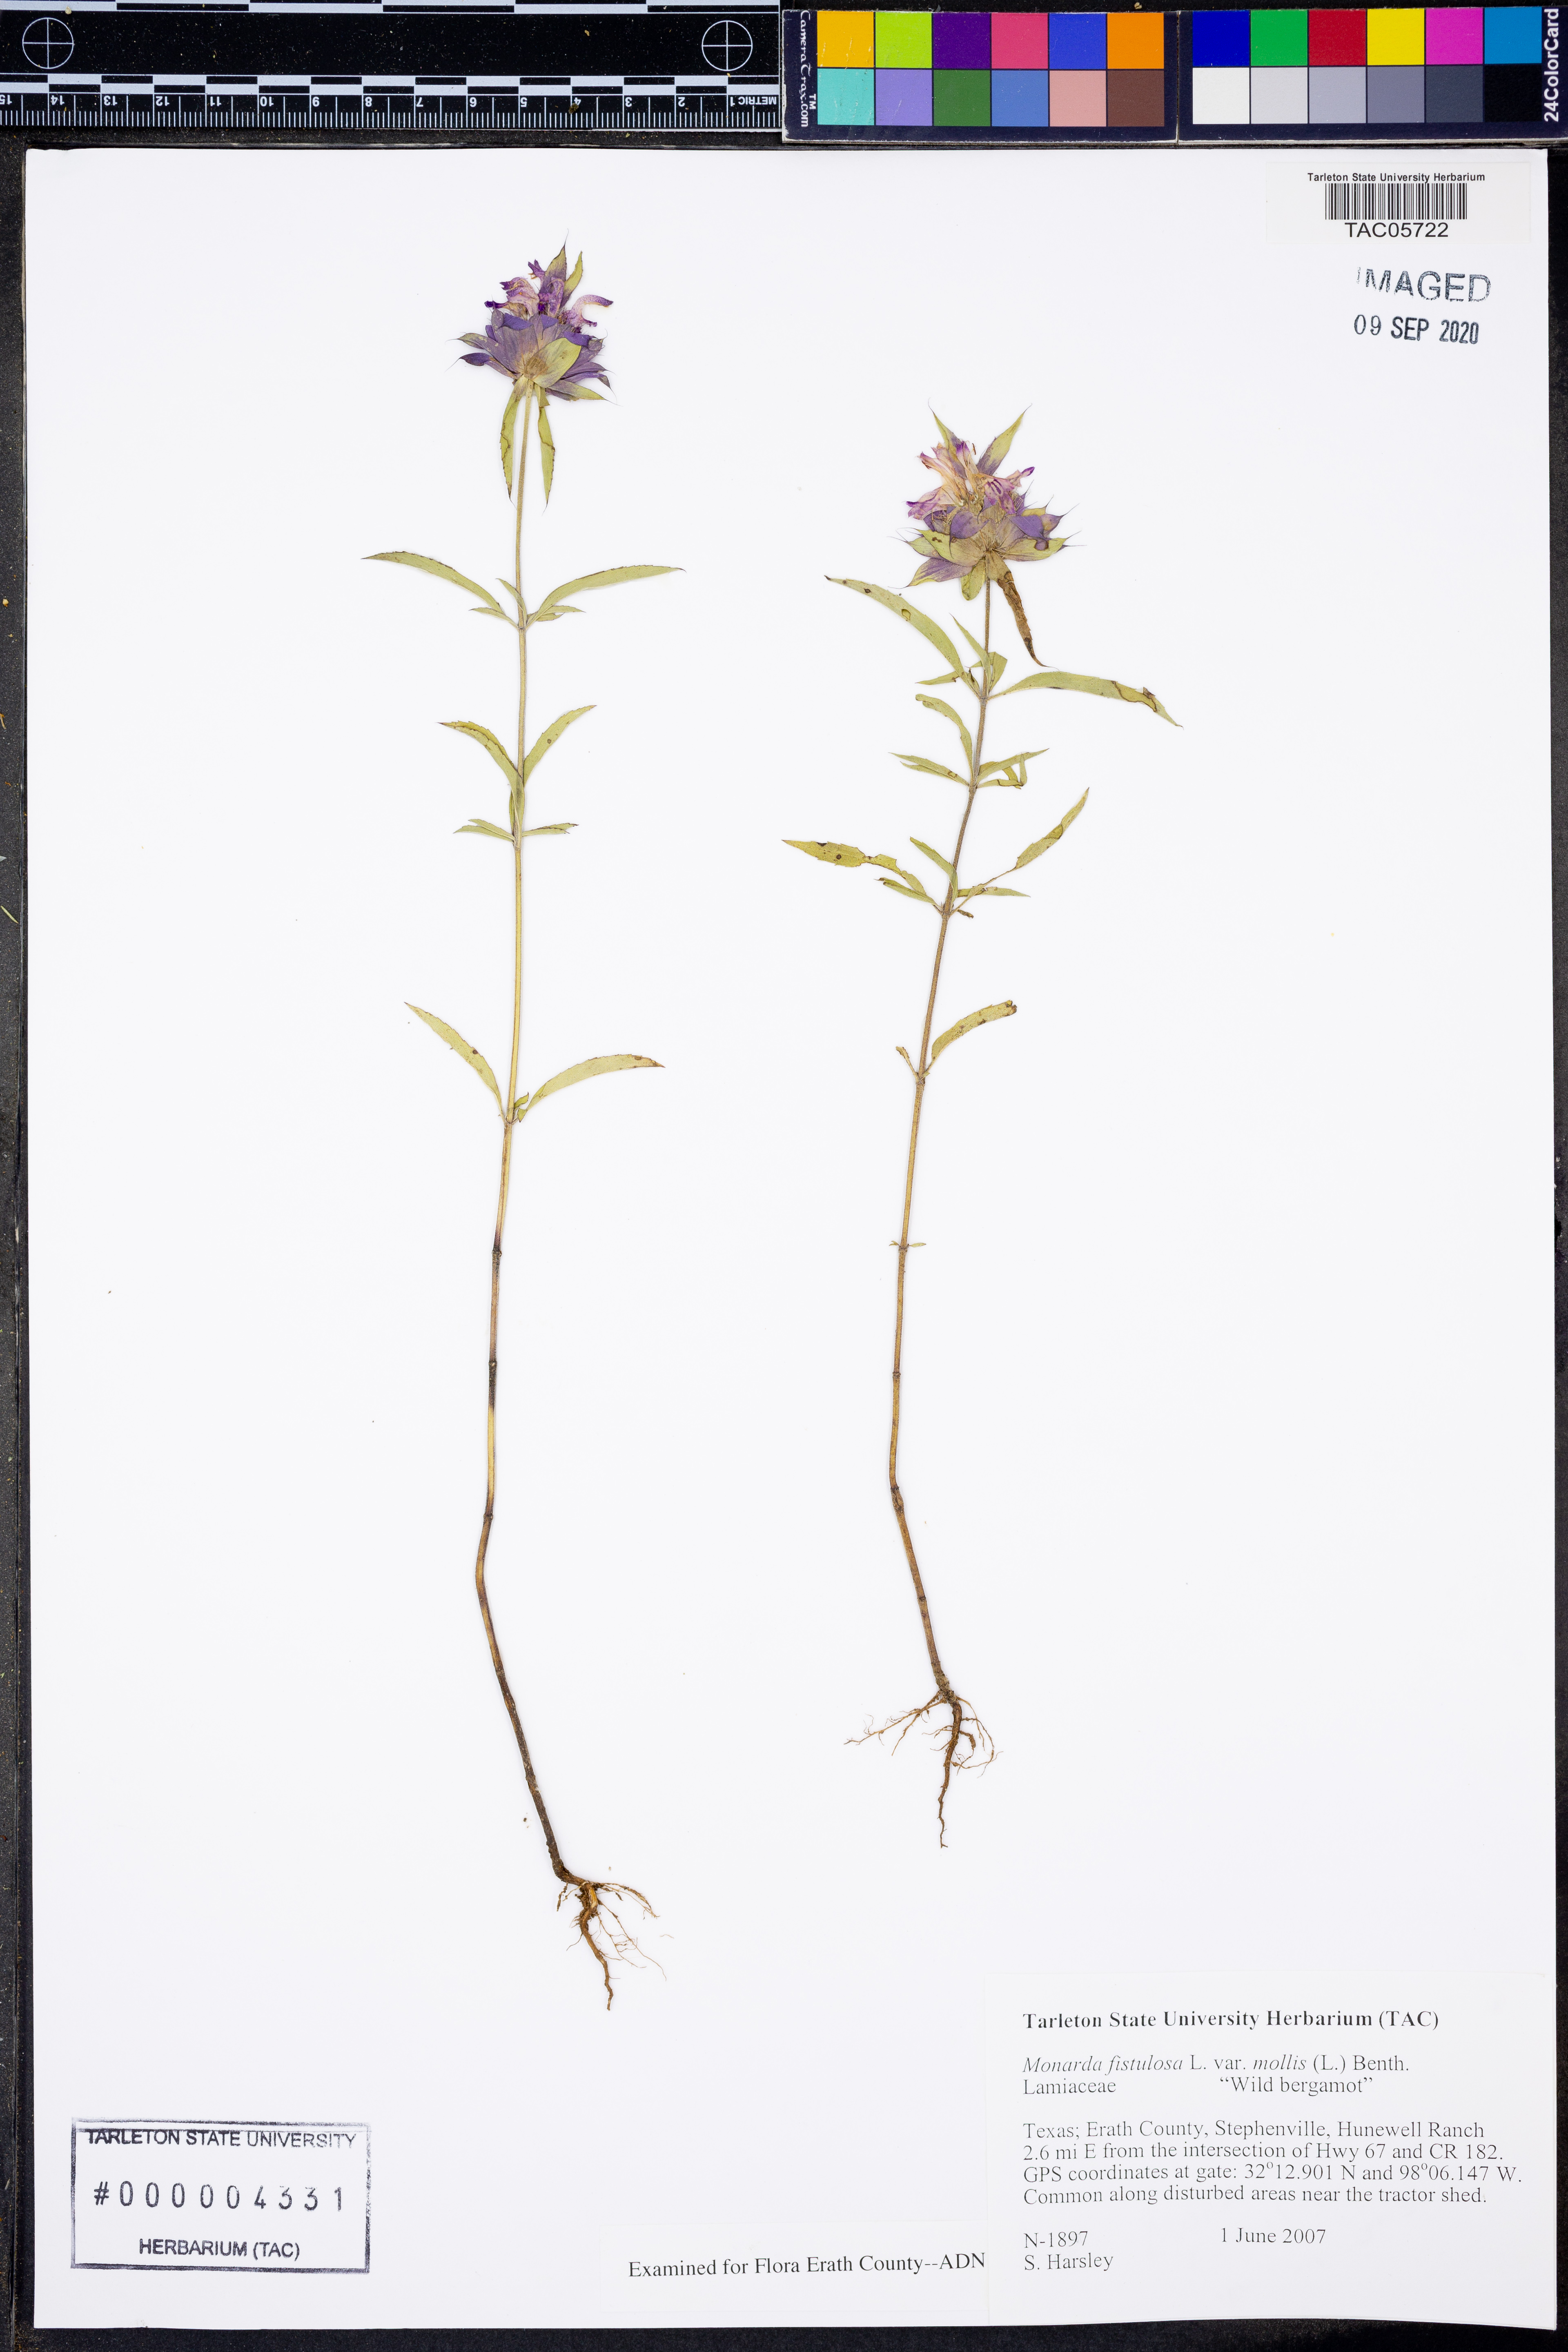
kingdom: Plantae
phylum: Tracheophyta
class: Magnoliopsida
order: Lamiales
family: Lamiaceae
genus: Monarda
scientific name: Monarda fistulosa
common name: Purple beebalm
